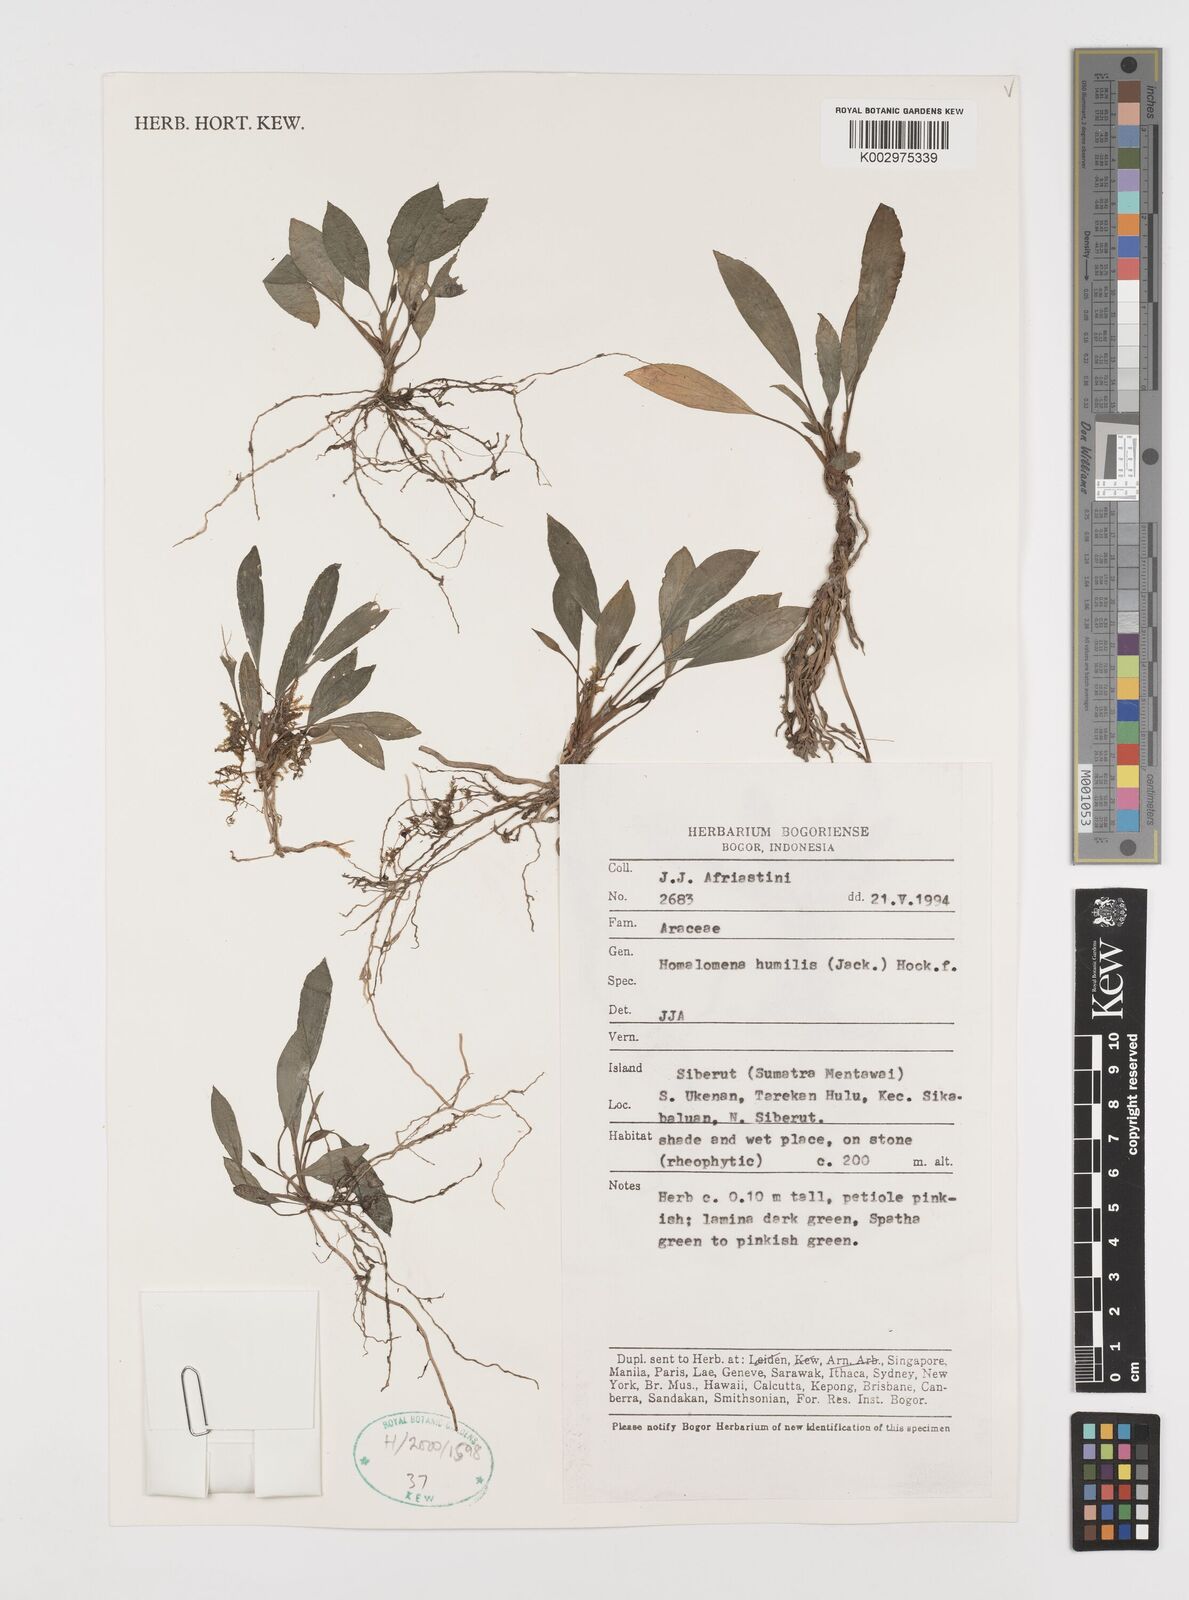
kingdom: Plantae
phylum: Tracheophyta
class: Liliopsida
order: Alismatales
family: Araceae
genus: Homalomena
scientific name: Homalomena humilis
